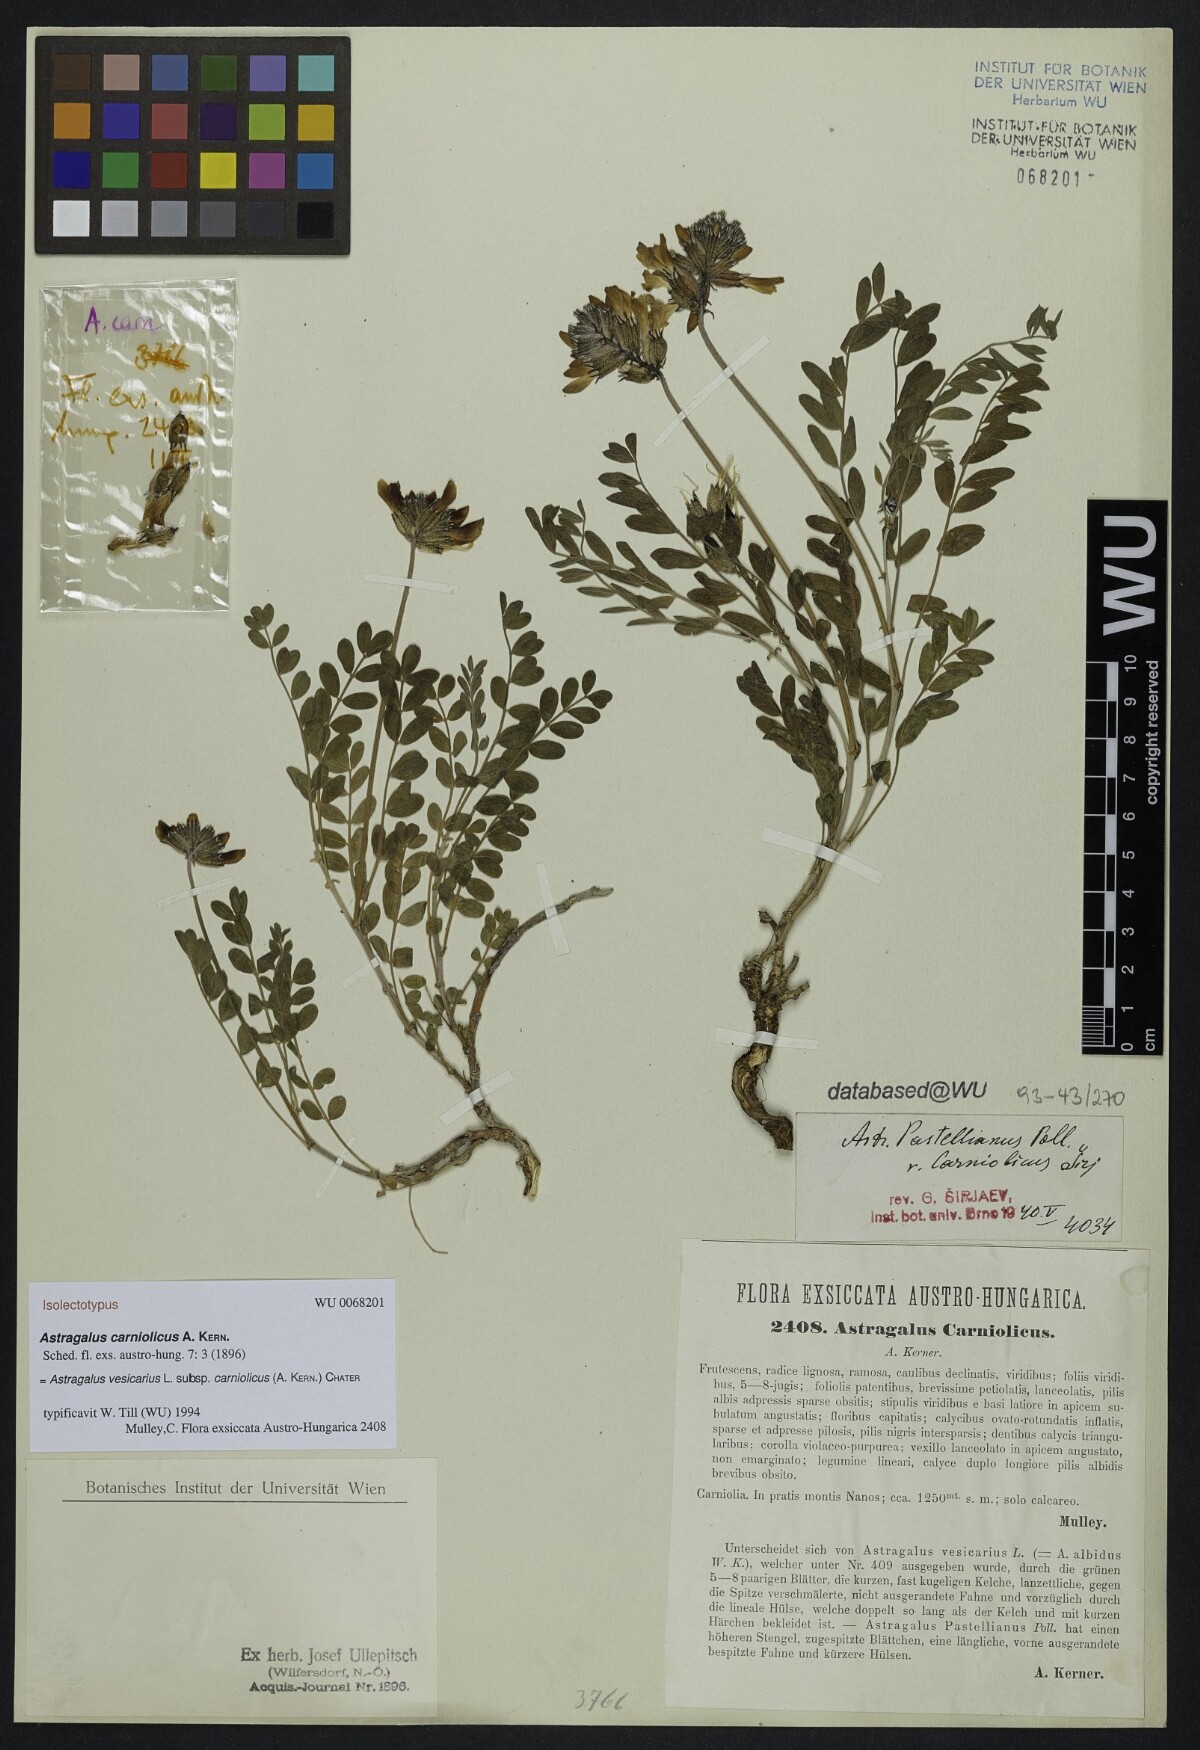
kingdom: Plantae
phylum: Tracheophyta
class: Magnoliopsida
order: Fabales
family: Fabaceae
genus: Astragalus
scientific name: Astragalus vesicarius
